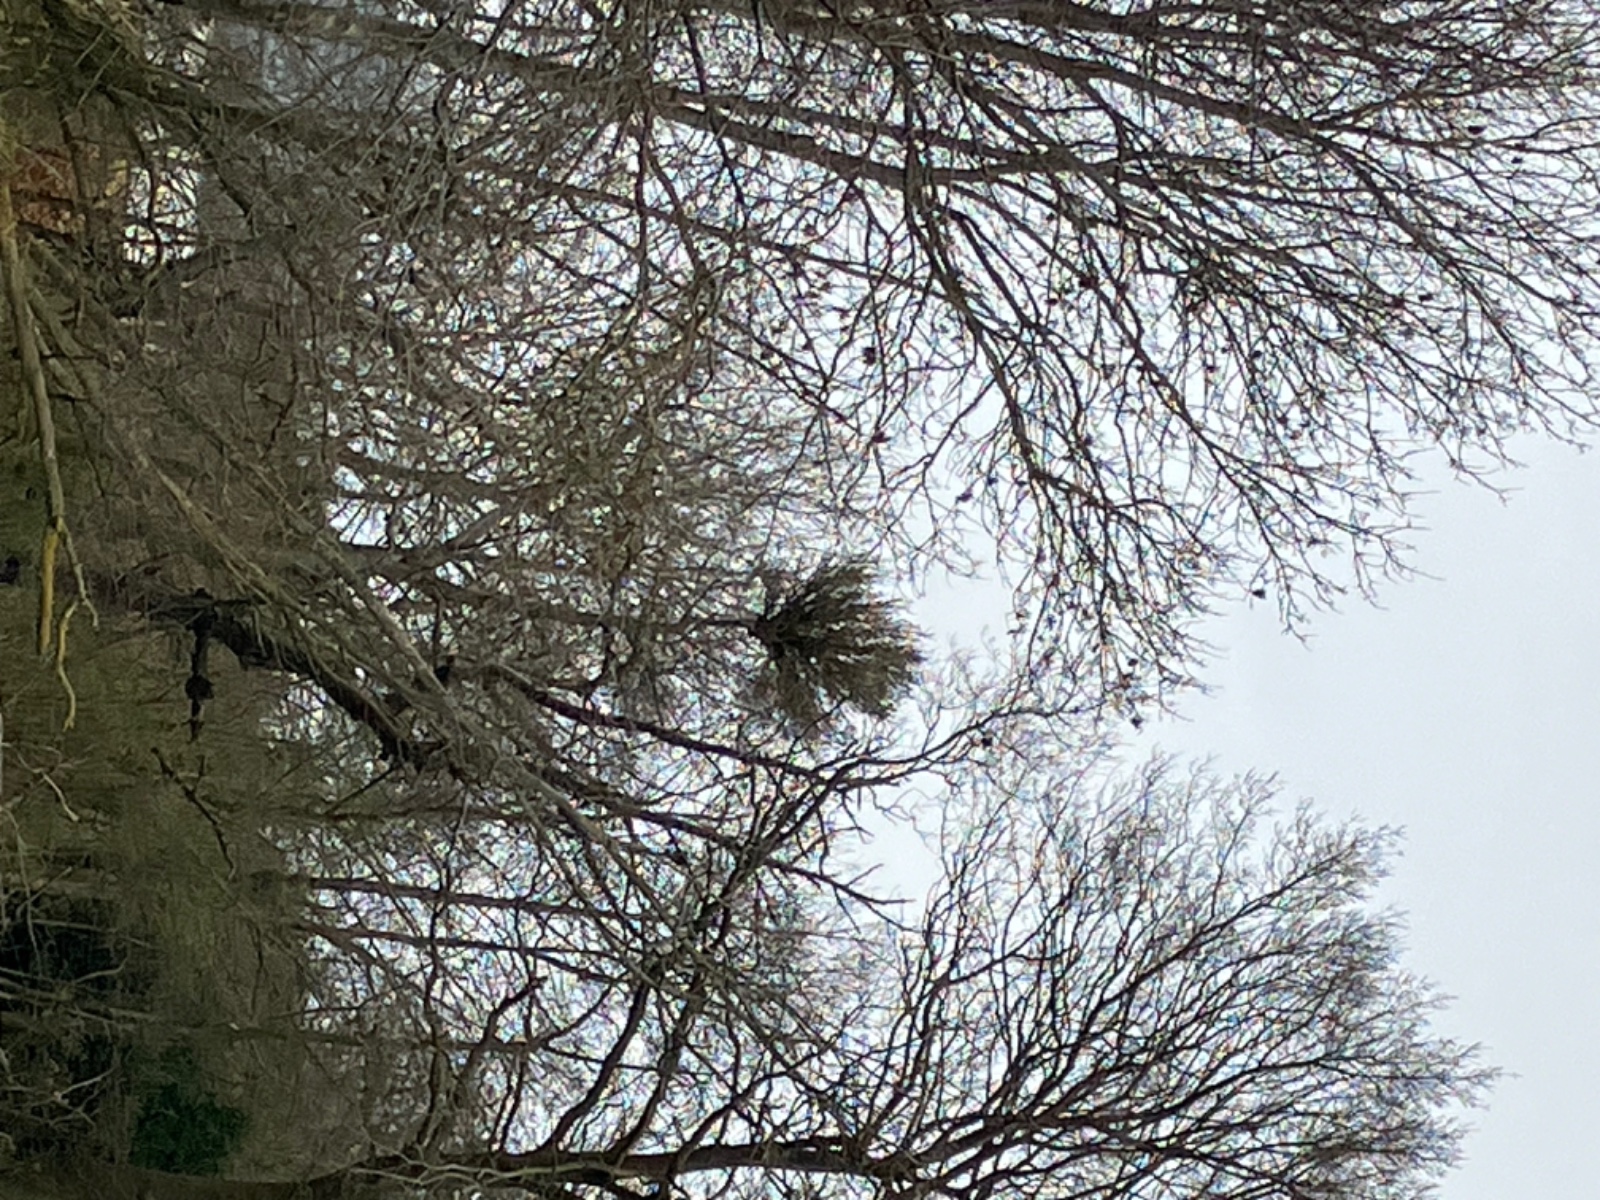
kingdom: Fungi
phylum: Ascomycota
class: Taphrinomycetes
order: Taphrinales
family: Taphrinaceae
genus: Taphrina
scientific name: Taphrina wiesneri
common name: Cherry leaf curl
